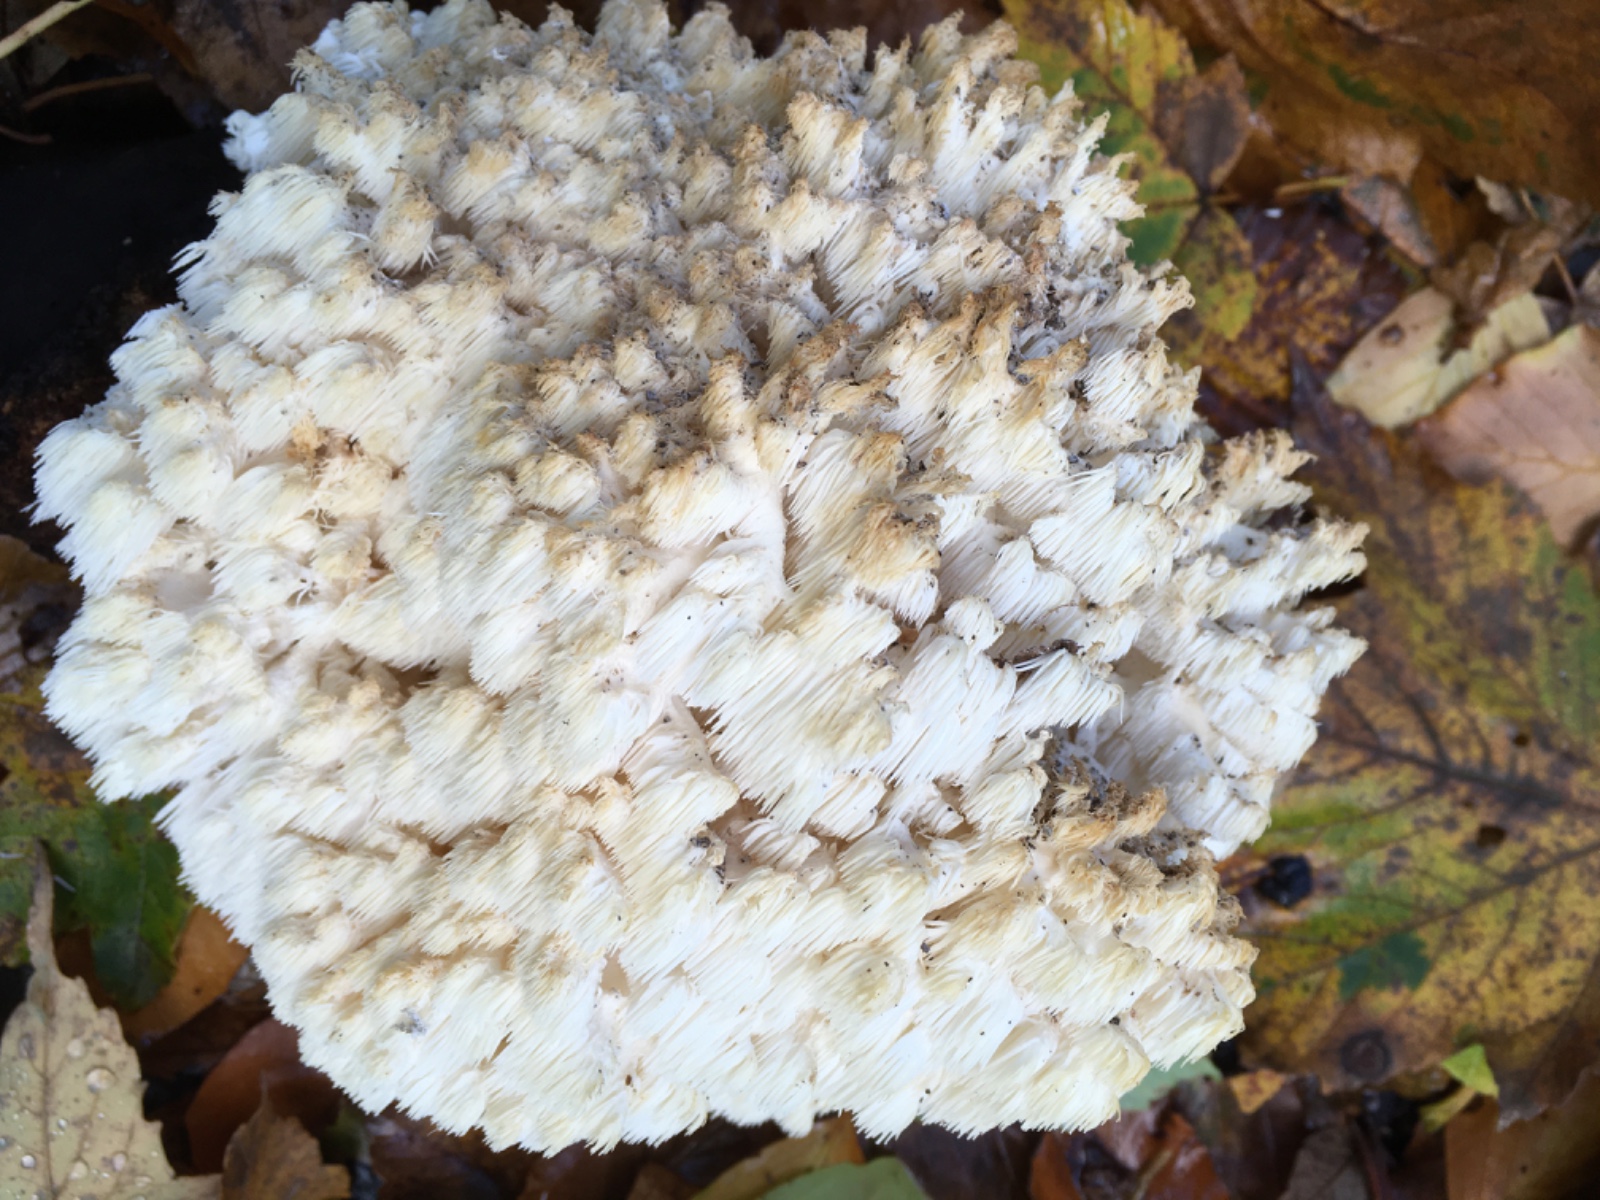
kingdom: Fungi
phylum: Basidiomycota
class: Agaricomycetes
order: Russulales
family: Hericiaceae
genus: Hericium
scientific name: Hericium coralloides
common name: koralpigsvamp
